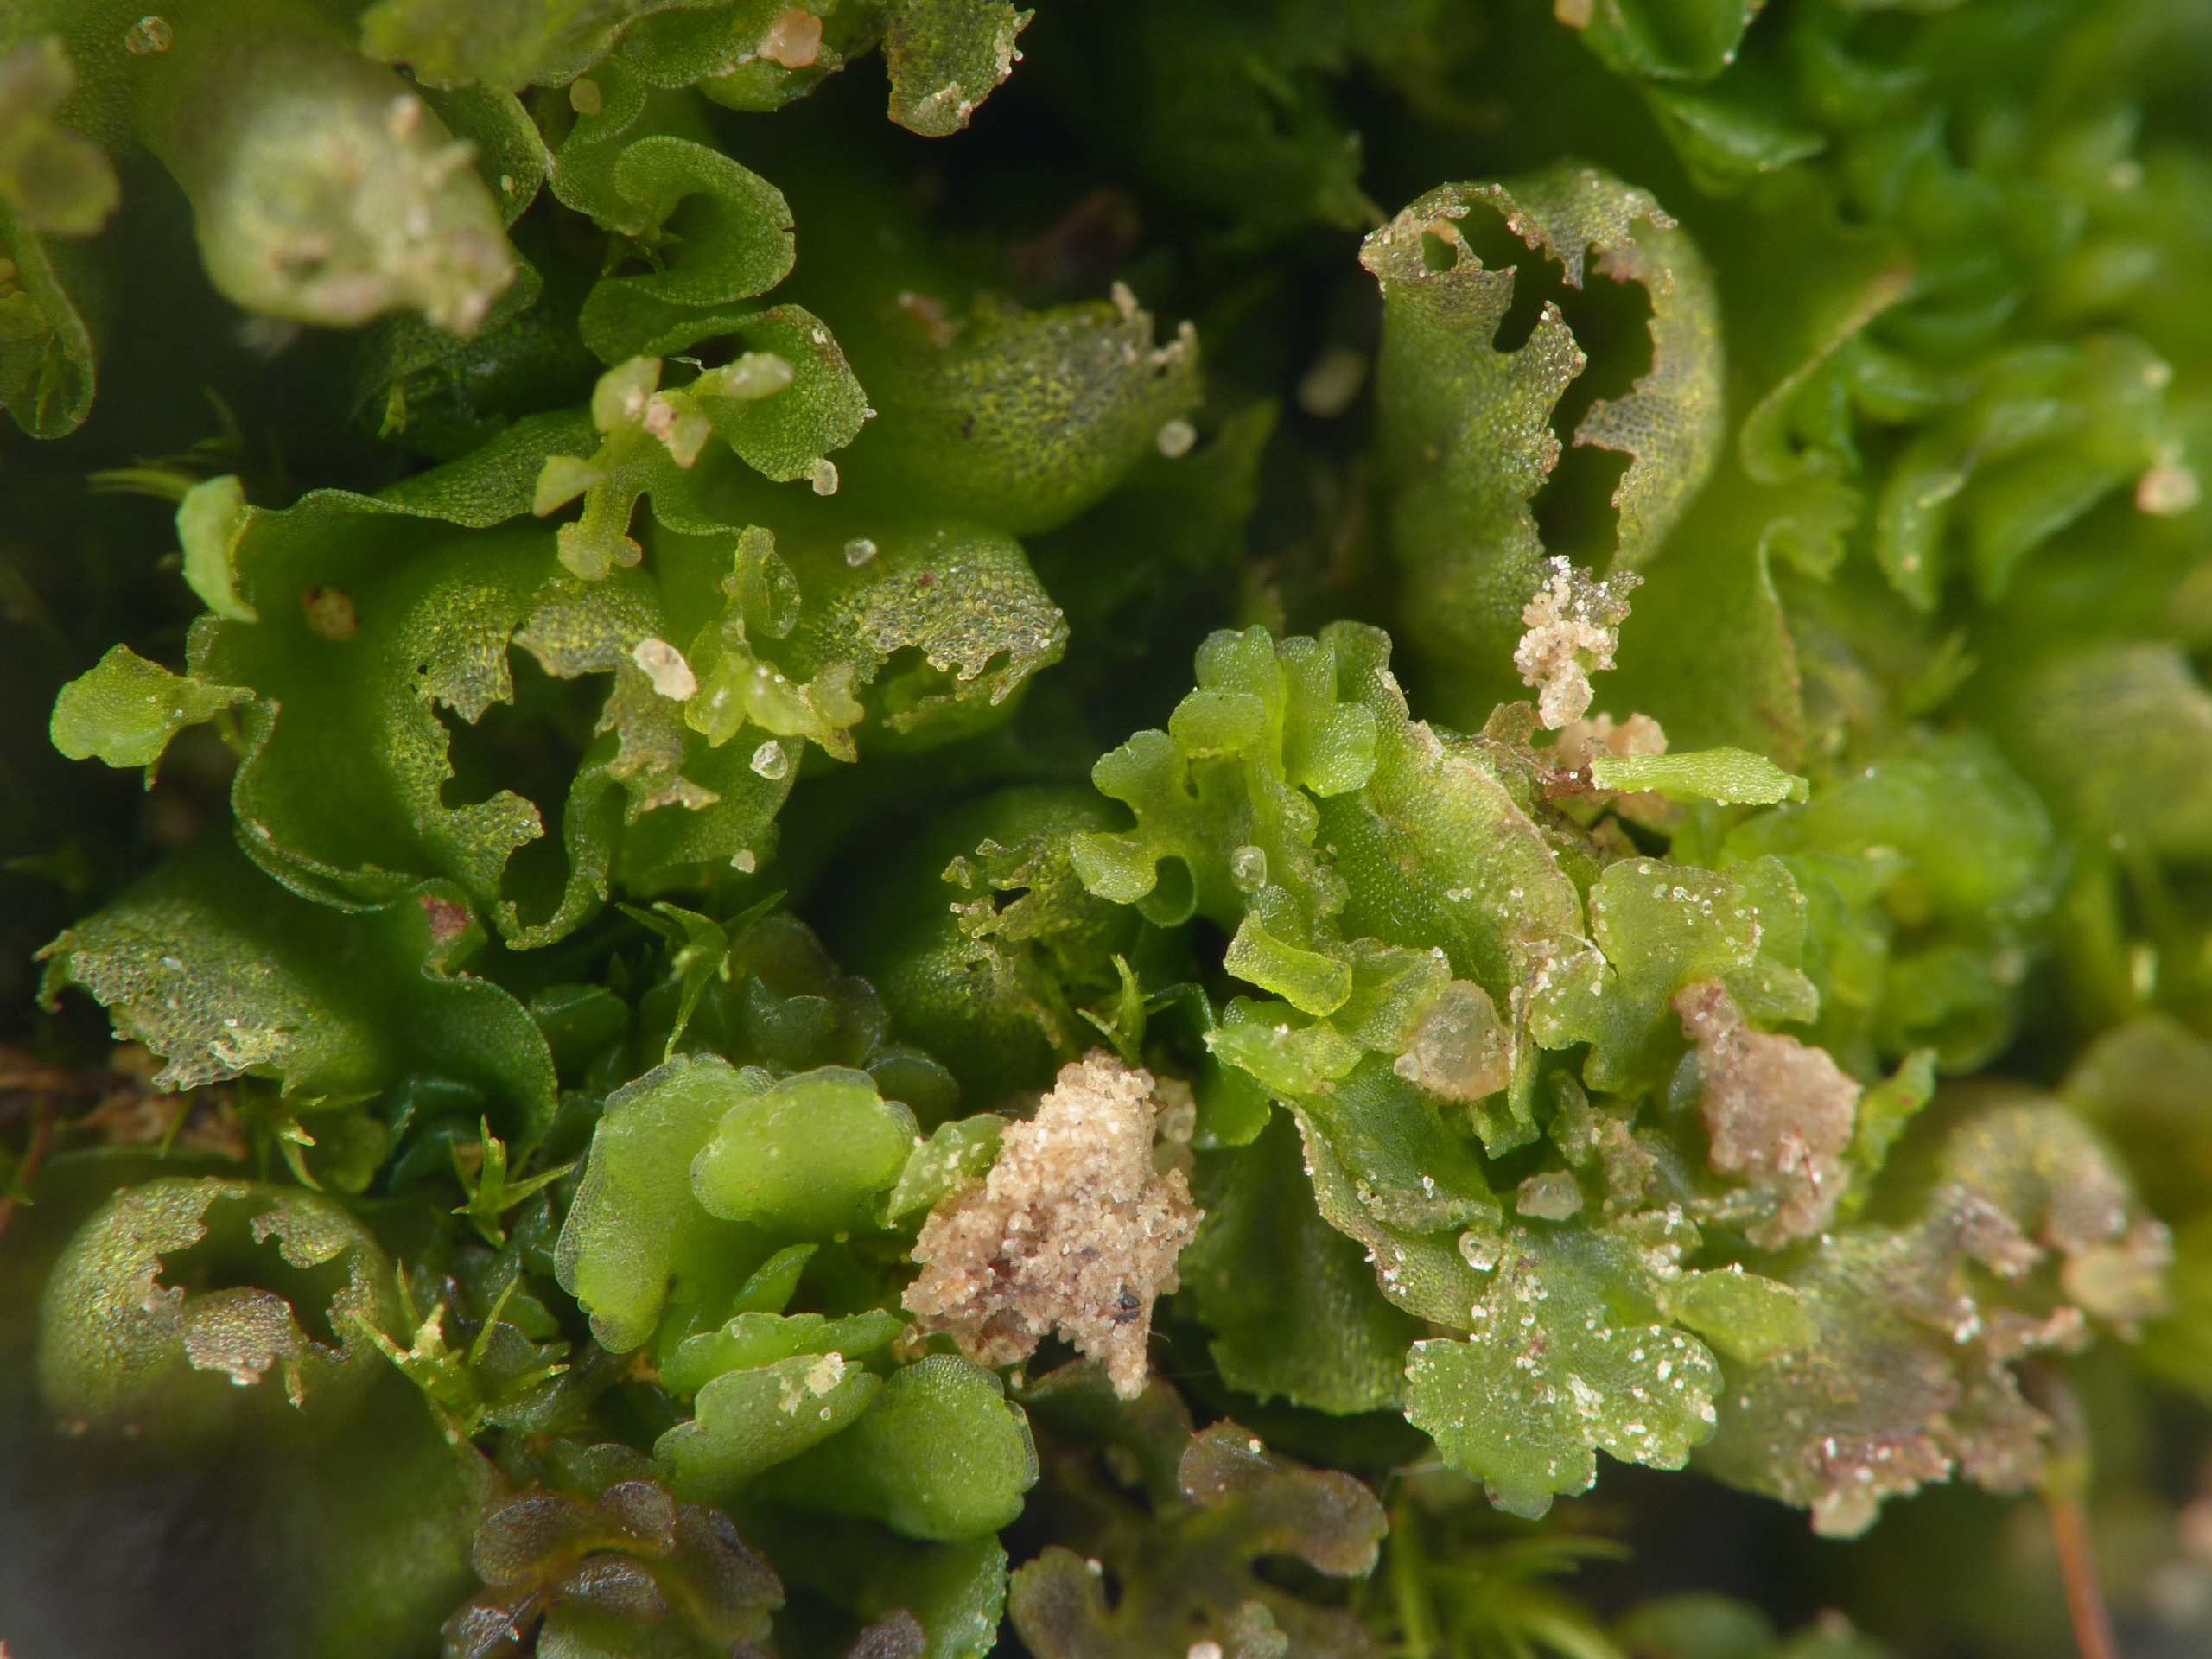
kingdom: Plantae
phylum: Marchantiophyta
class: Jungermanniopsida
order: Pelliales
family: Pelliaceae
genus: Apopellia
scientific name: Apopellia endiviifolia
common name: Fliget ribbeløv
